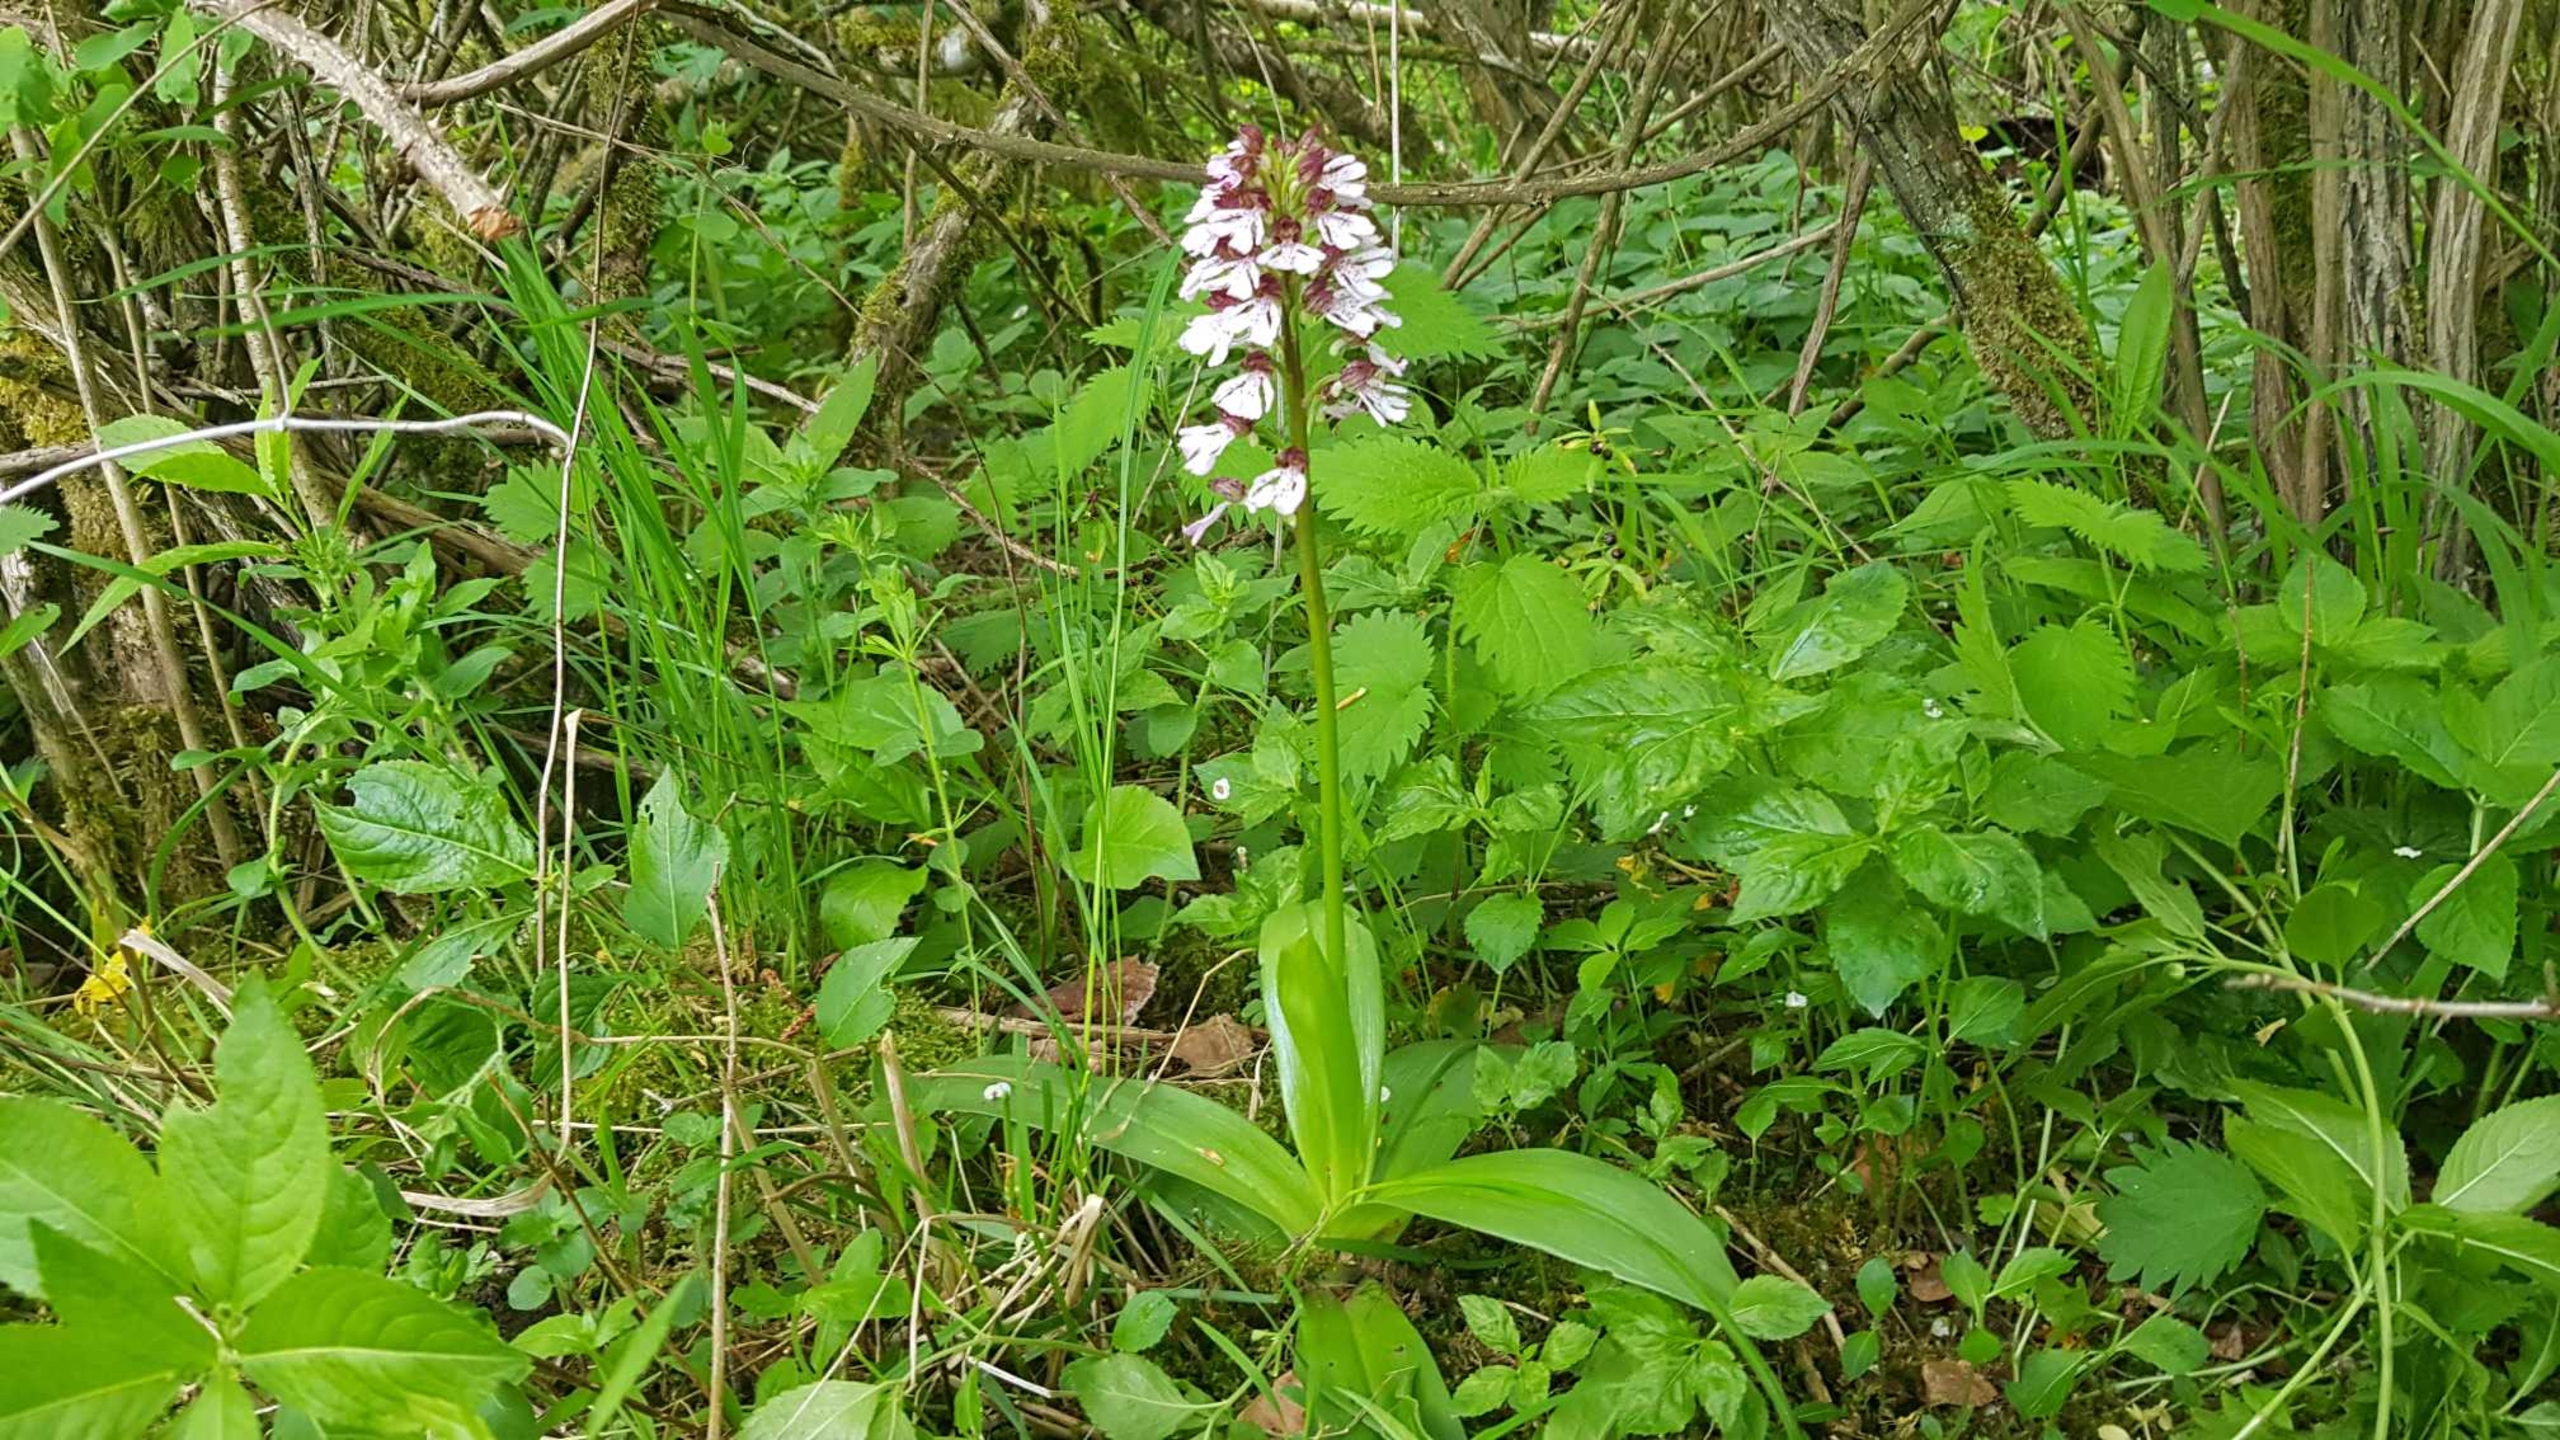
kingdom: Plantae
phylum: Tracheophyta
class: Liliopsida
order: Asparagales
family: Orchidaceae
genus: Orchis
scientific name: Orchis purpurea
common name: Stor gøgeurt
